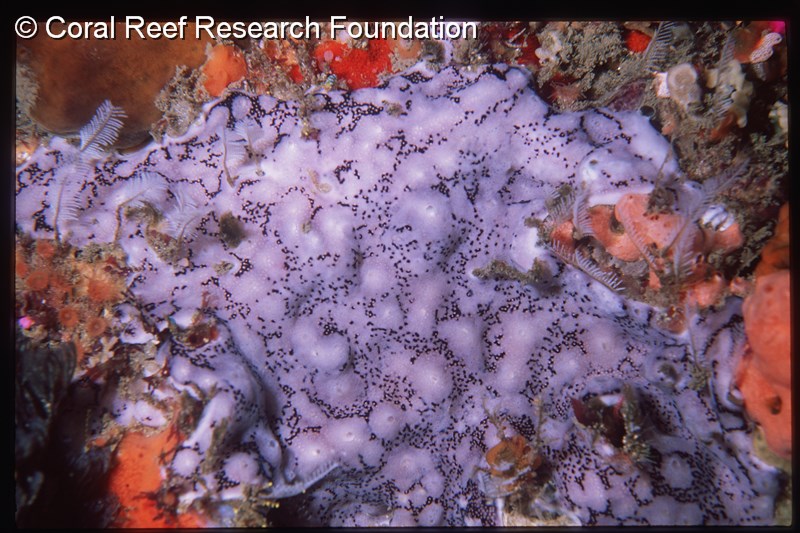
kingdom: Animalia
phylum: Chordata
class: Ascidiacea
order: Aplousobranchia
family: Didemnidae
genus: Didemnum
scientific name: Didemnum
